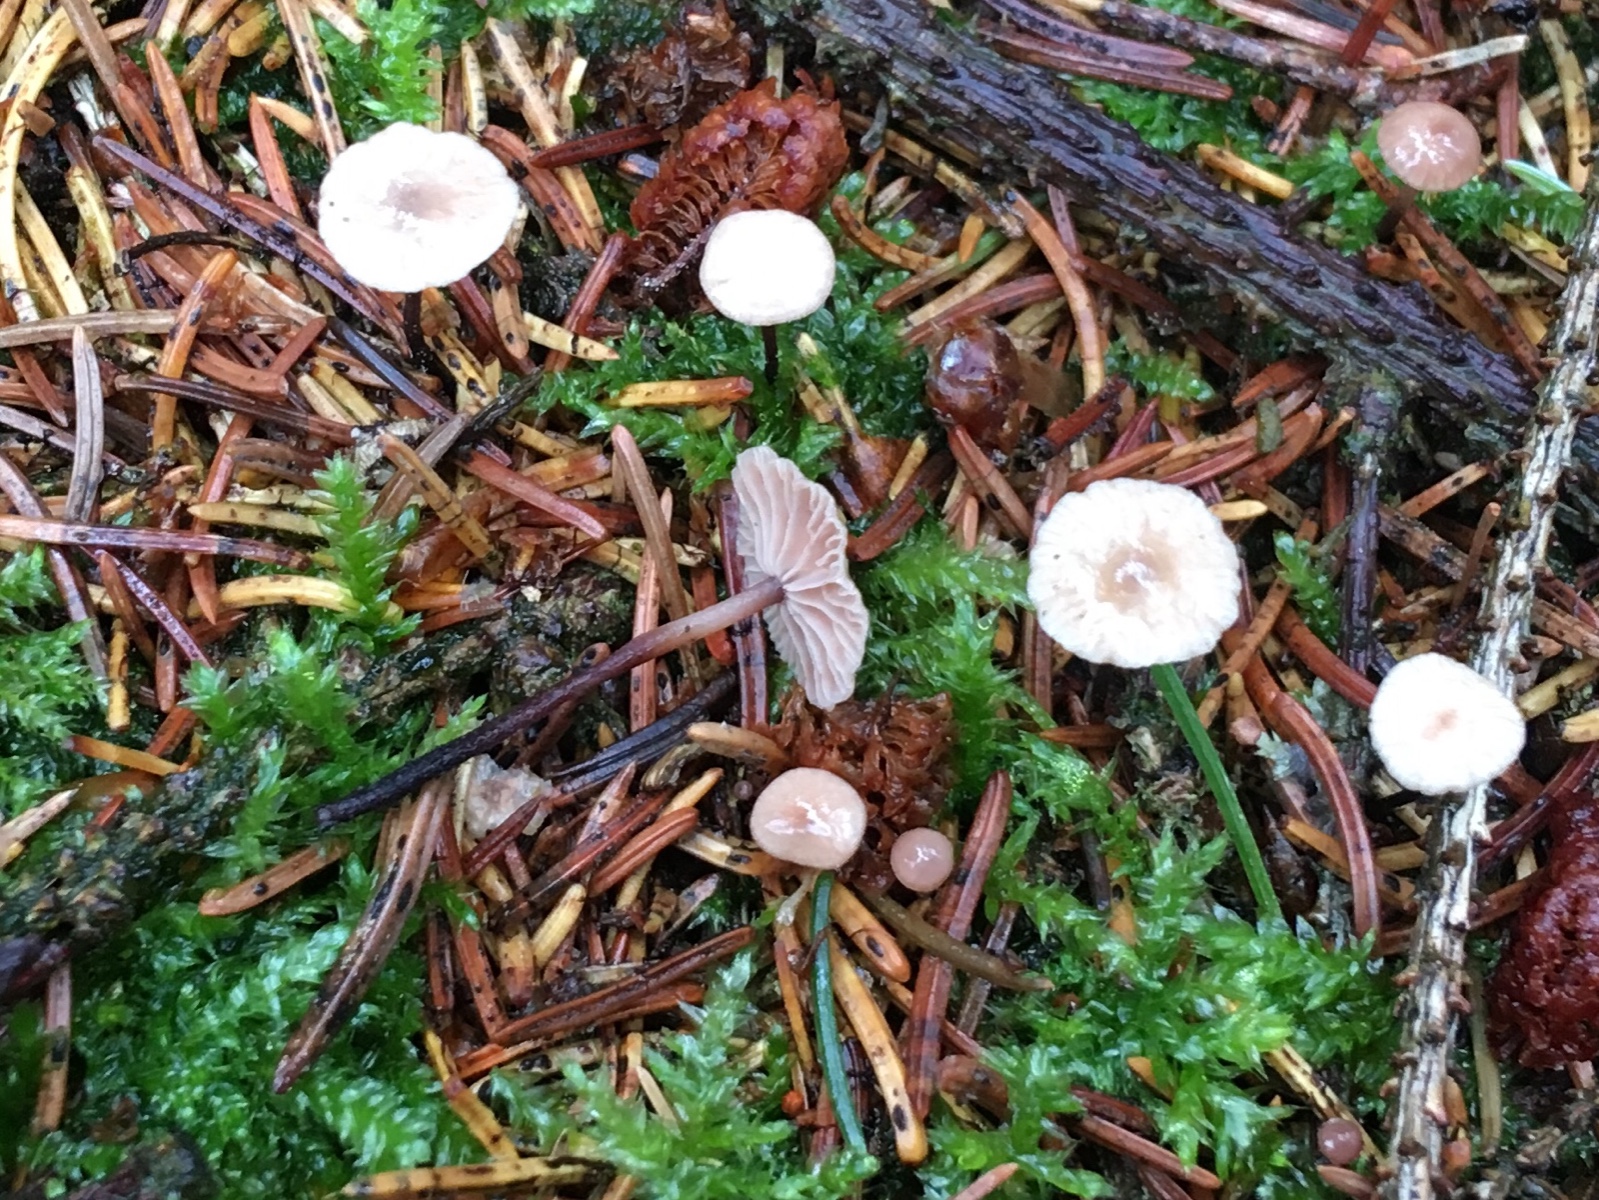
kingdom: Fungi
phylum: Basidiomycota
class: Agaricomycetes
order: Agaricales
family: Omphalotaceae
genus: Paragymnopus
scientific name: Paragymnopus perforans
